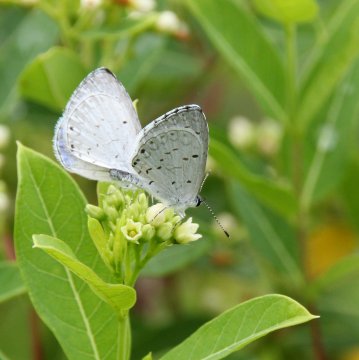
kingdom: Animalia
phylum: Arthropoda
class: Insecta
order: Lepidoptera
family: Lycaenidae
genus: Cyaniris
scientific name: Cyaniris neglecta
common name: Summer Azure
